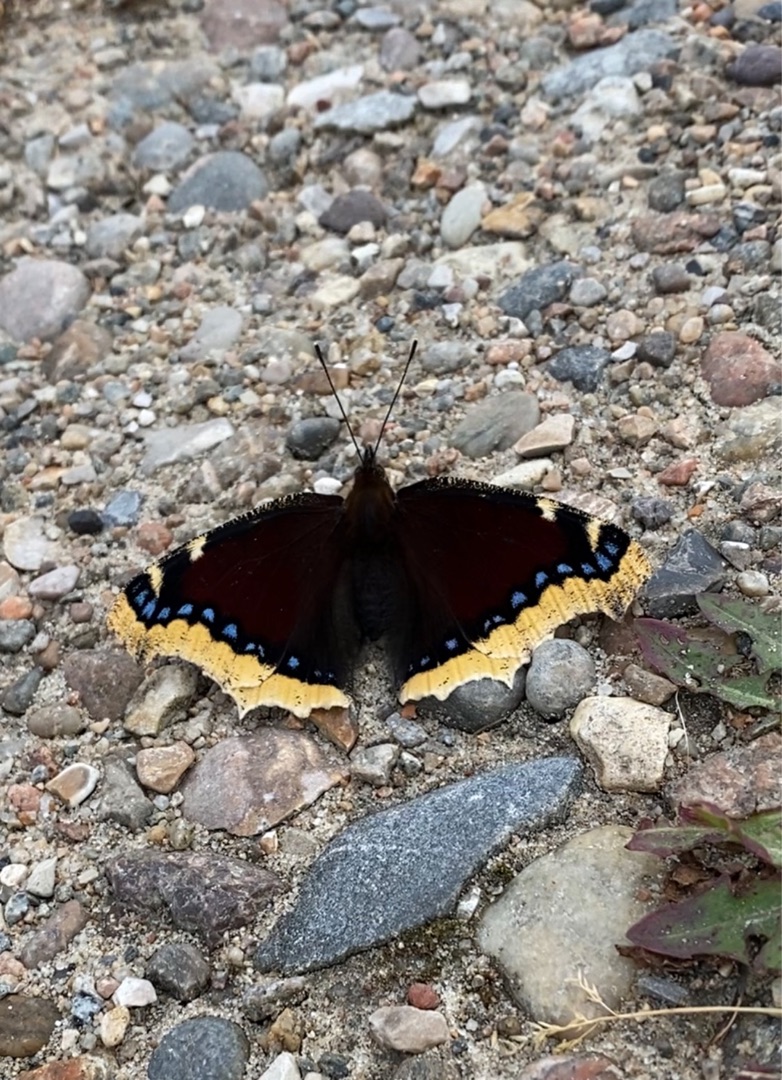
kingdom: Animalia
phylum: Arthropoda
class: Insecta
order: Lepidoptera
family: Nymphalidae
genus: Nymphalis
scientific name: Nymphalis antiopa
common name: Sørgekåbe
